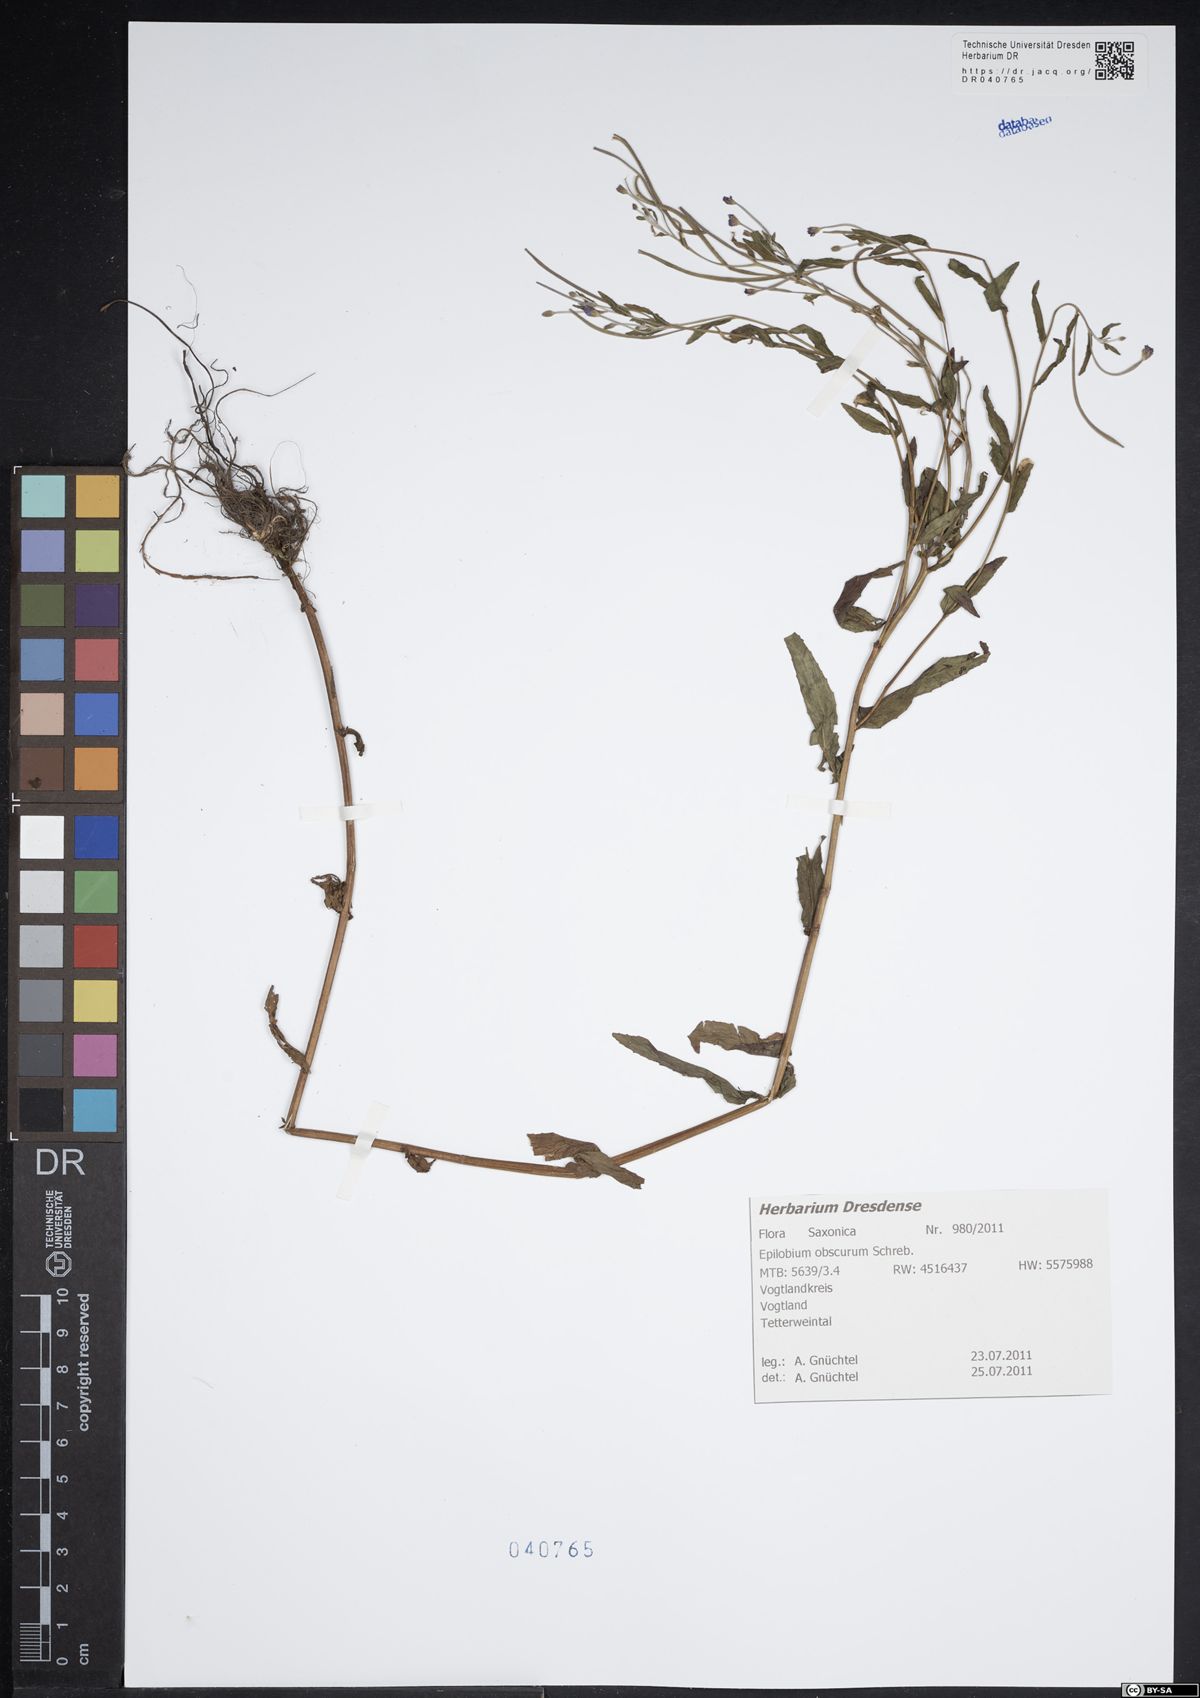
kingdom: Plantae
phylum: Tracheophyta
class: Magnoliopsida
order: Myrtales
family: Onagraceae
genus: Epilobium
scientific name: Epilobium obscurum
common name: Short-fruited willowherb
